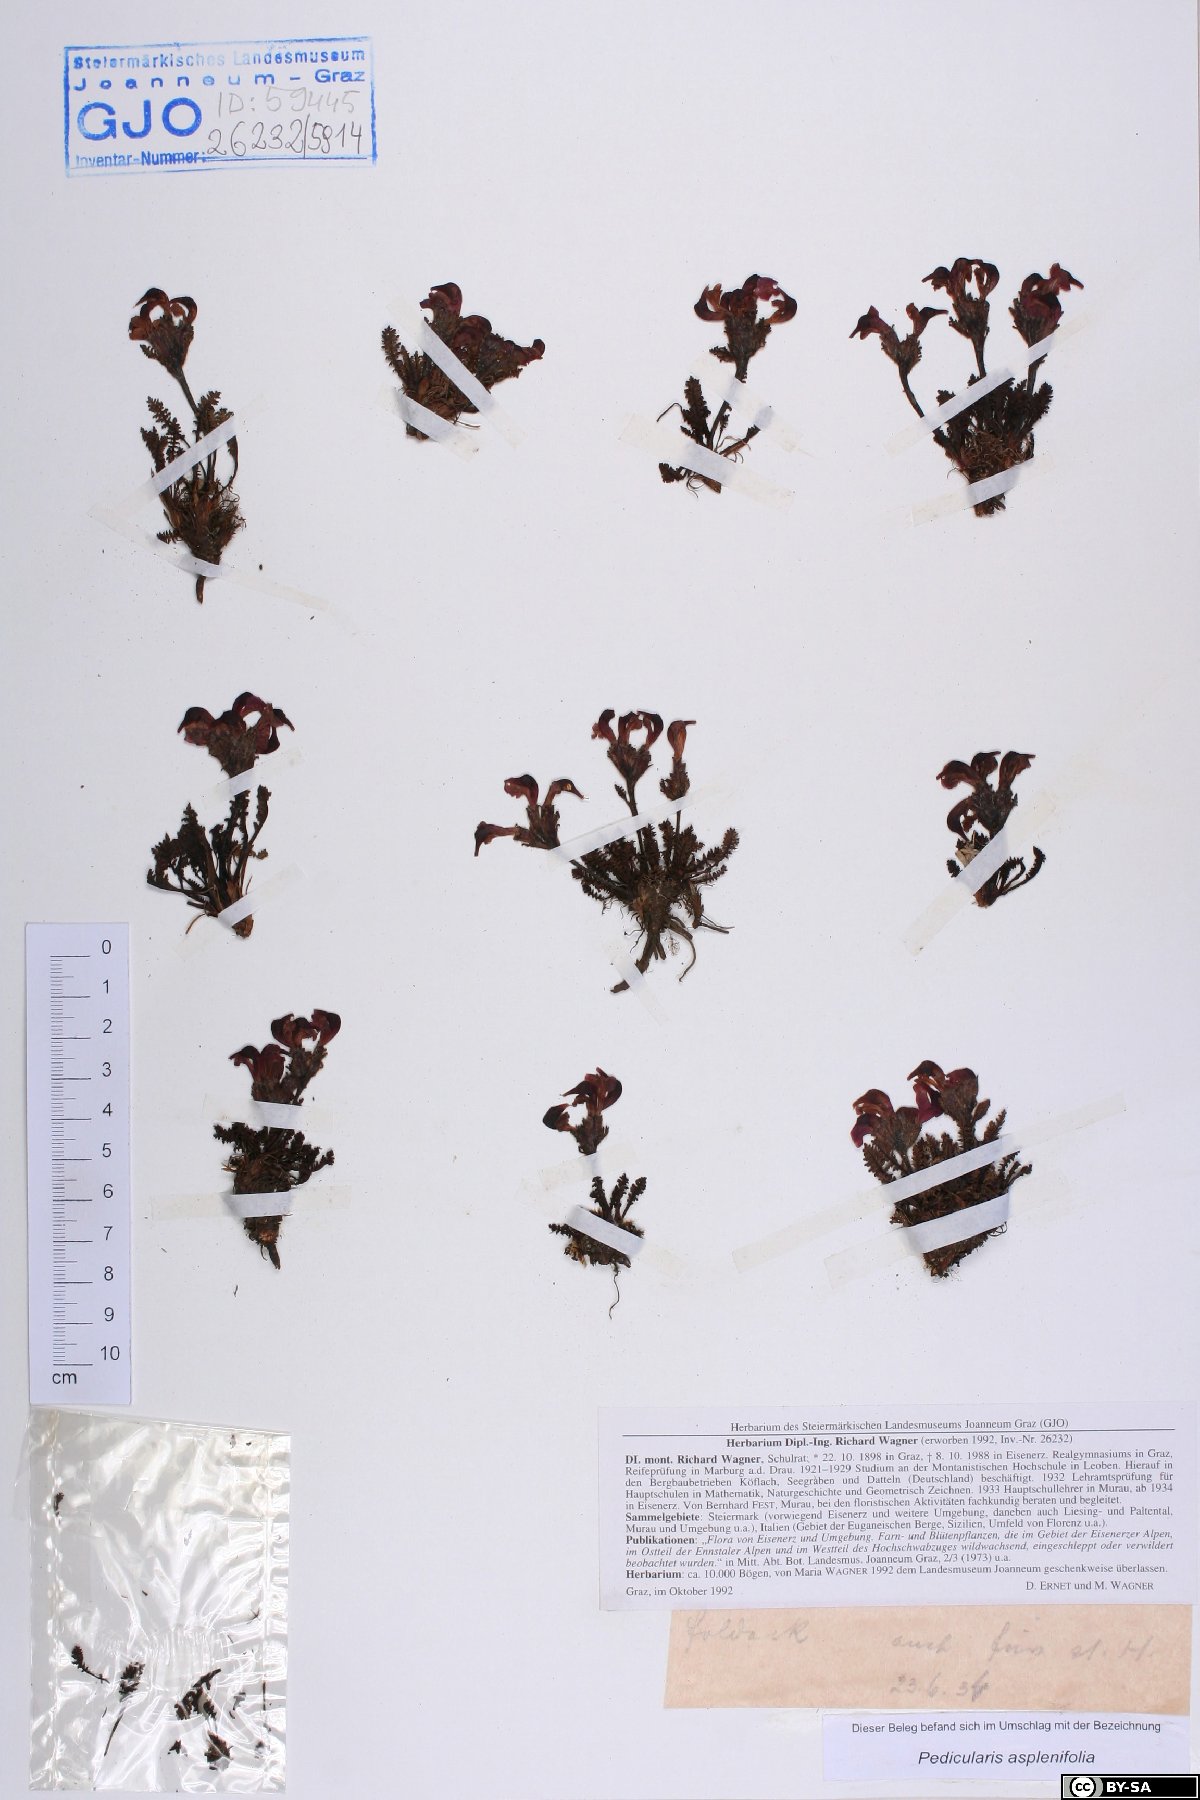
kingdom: Plantae
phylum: Tracheophyta
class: Magnoliopsida
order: Lamiales
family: Orobanchaceae
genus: Pedicularis
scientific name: Pedicularis asplenifolia
